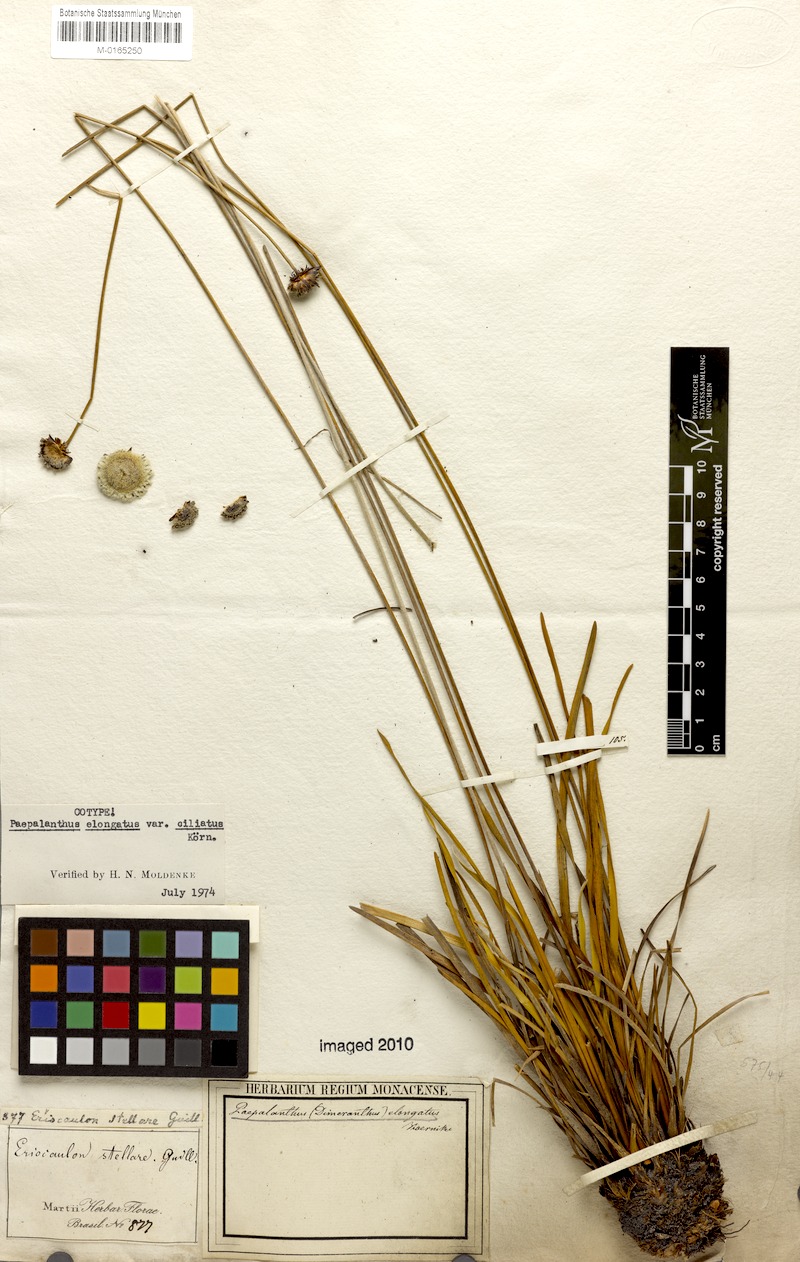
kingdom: Plantae
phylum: Tracheophyta
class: Liliopsida
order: Poales
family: Eriocaulaceae
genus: Paepalanthus
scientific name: Paepalanthus elongatus
